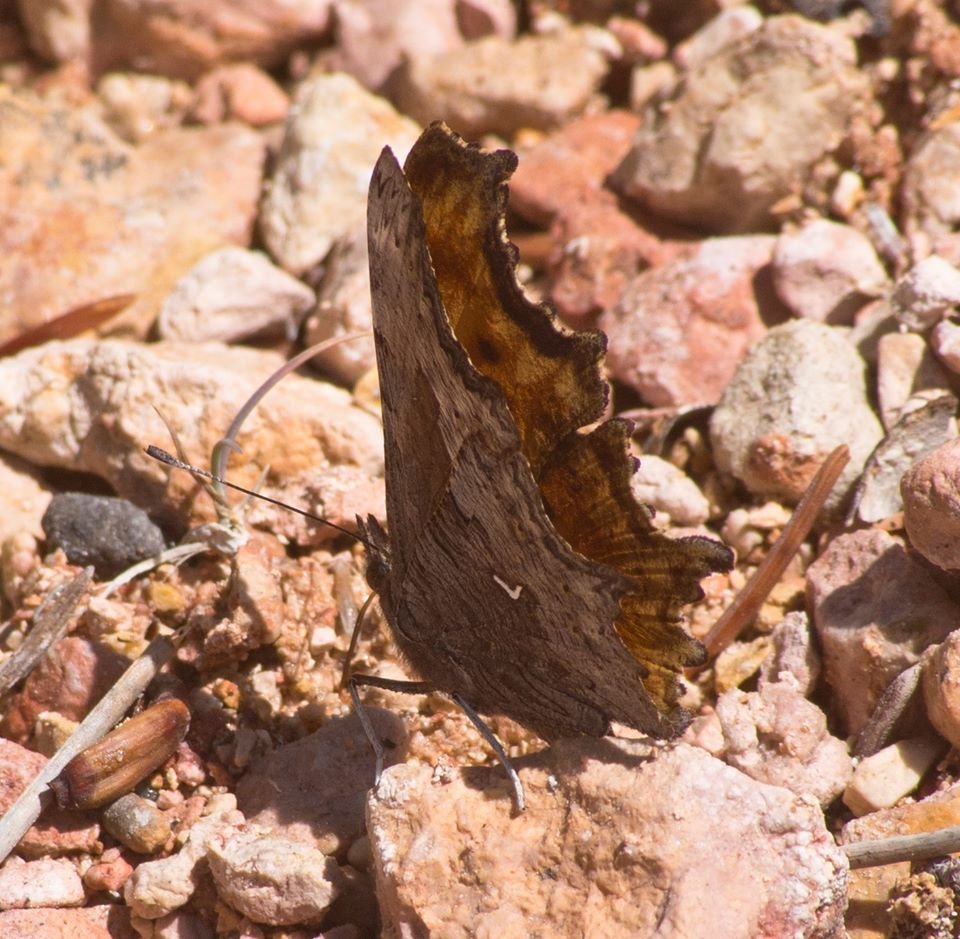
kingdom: Animalia
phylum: Arthropoda
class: Insecta
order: Lepidoptera
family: Nymphalidae
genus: Polygonia
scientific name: Polygonia gracilis
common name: Hoary Comma
